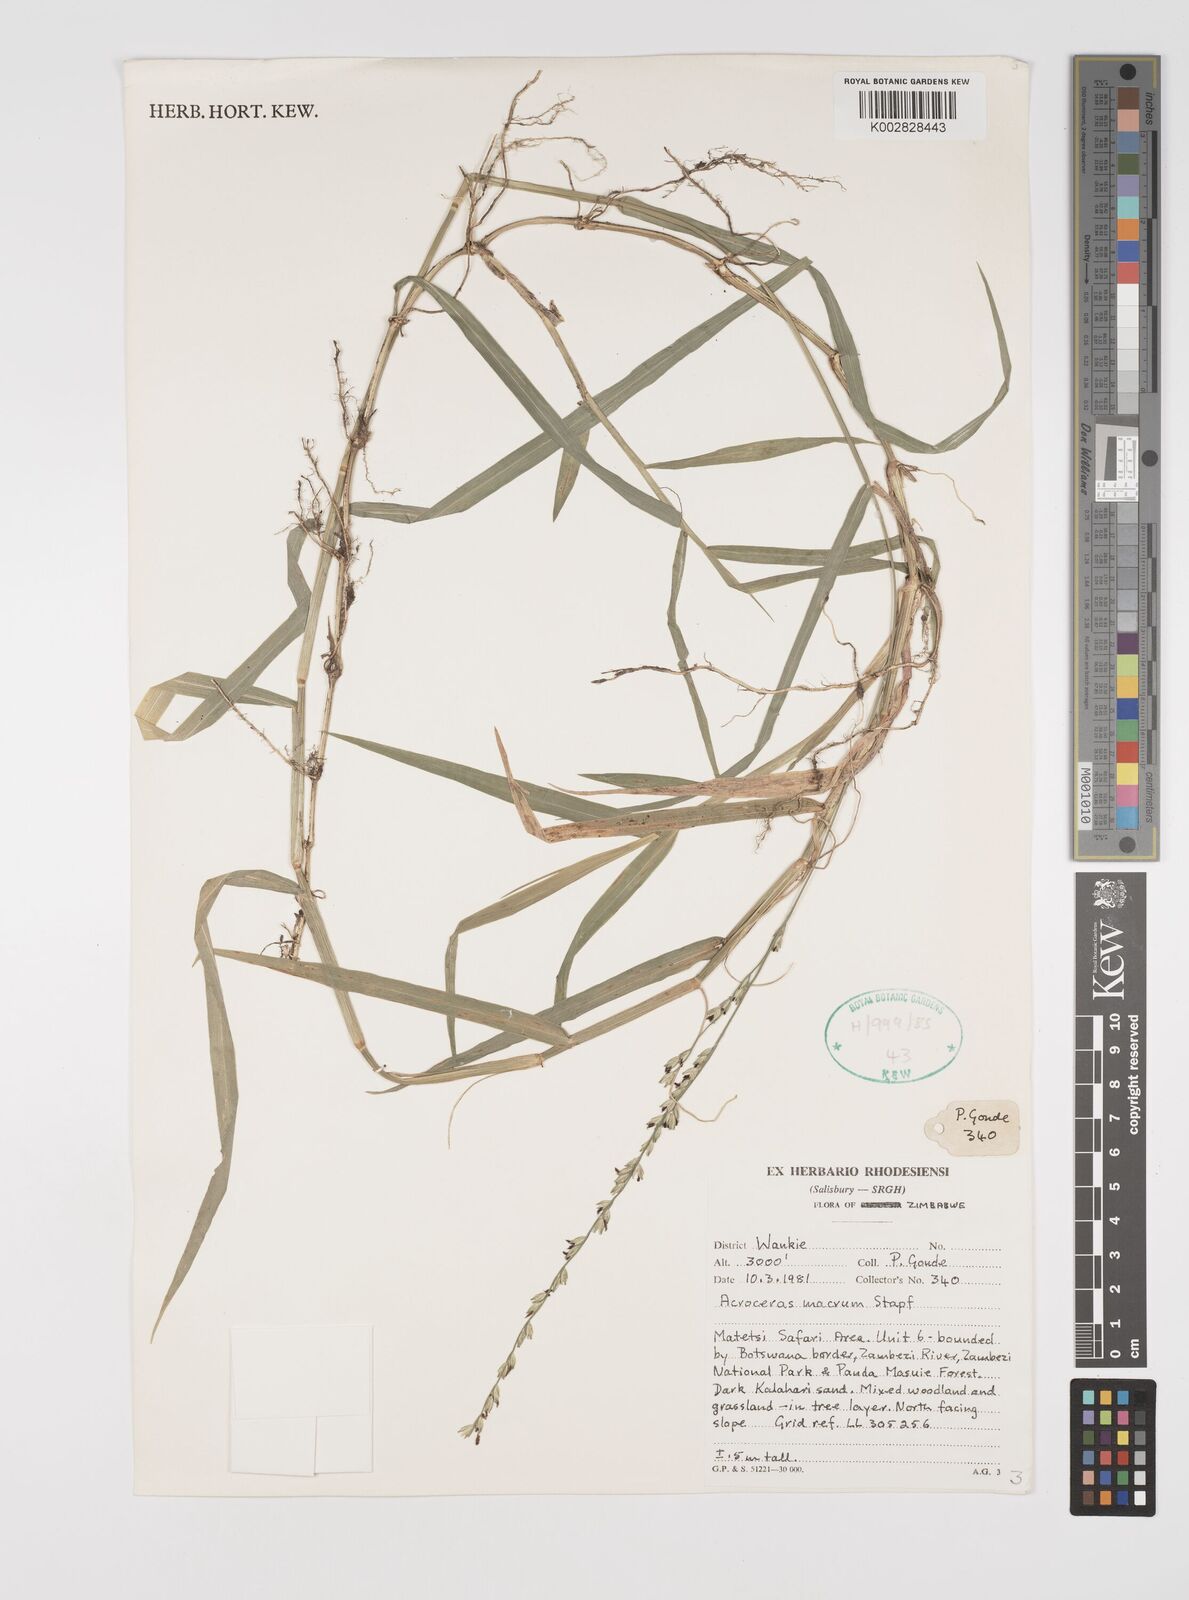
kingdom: Plantae
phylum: Tracheophyta
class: Liliopsida
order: Poales
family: Poaceae
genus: Acroceras
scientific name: Acroceras macrum
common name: Nyl grass
